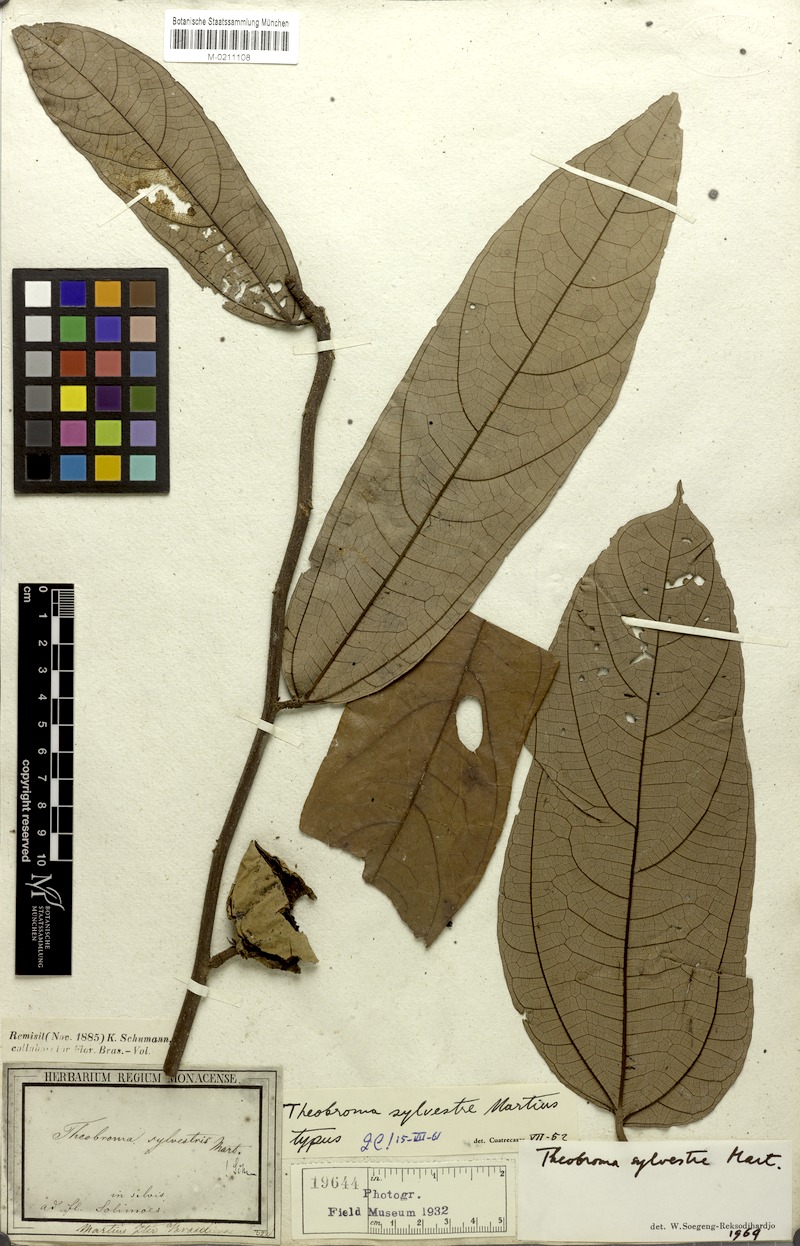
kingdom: Plantae
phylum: Tracheophyta
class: Magnoliopsida
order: Malvales
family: Malvaceae
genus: Theobroma
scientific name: Theobroma sylvestre
